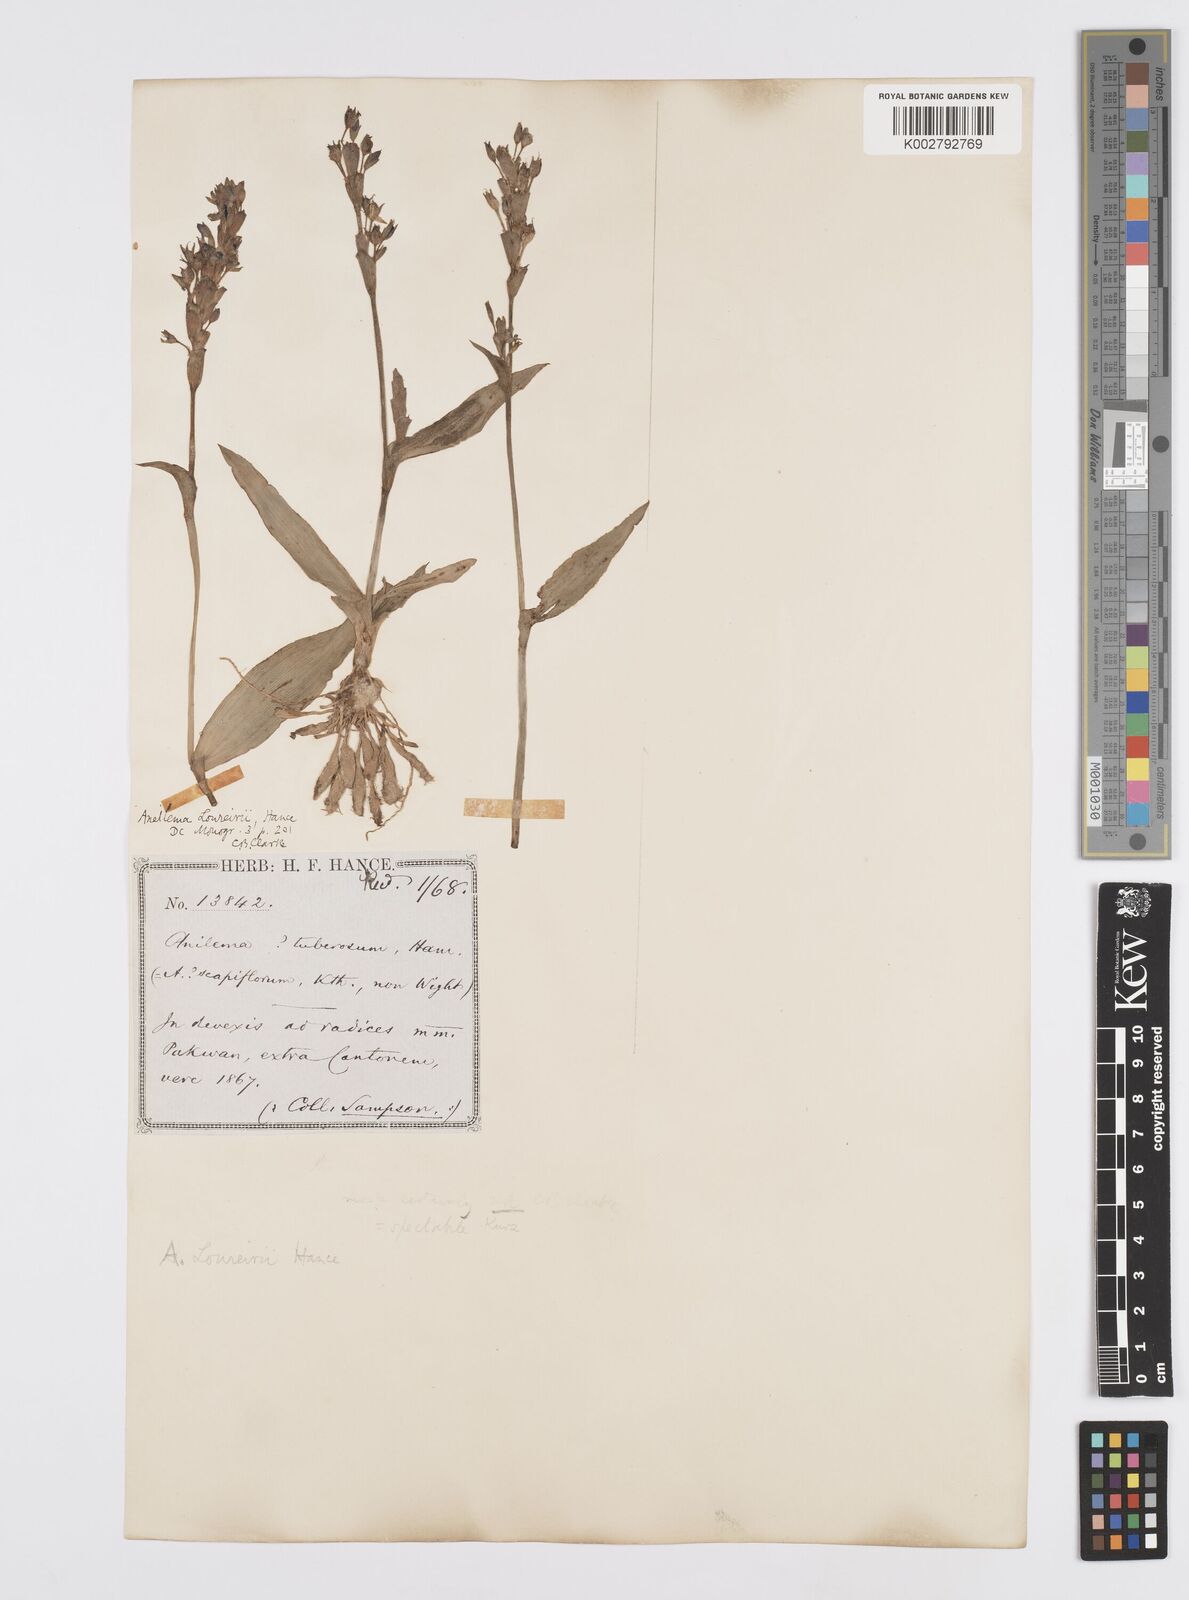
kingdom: Plantae
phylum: Tracheophyta
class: Liliopsida
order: Commelinales
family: Commelinaceae
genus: Murdannia
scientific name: Murdannia edulis
